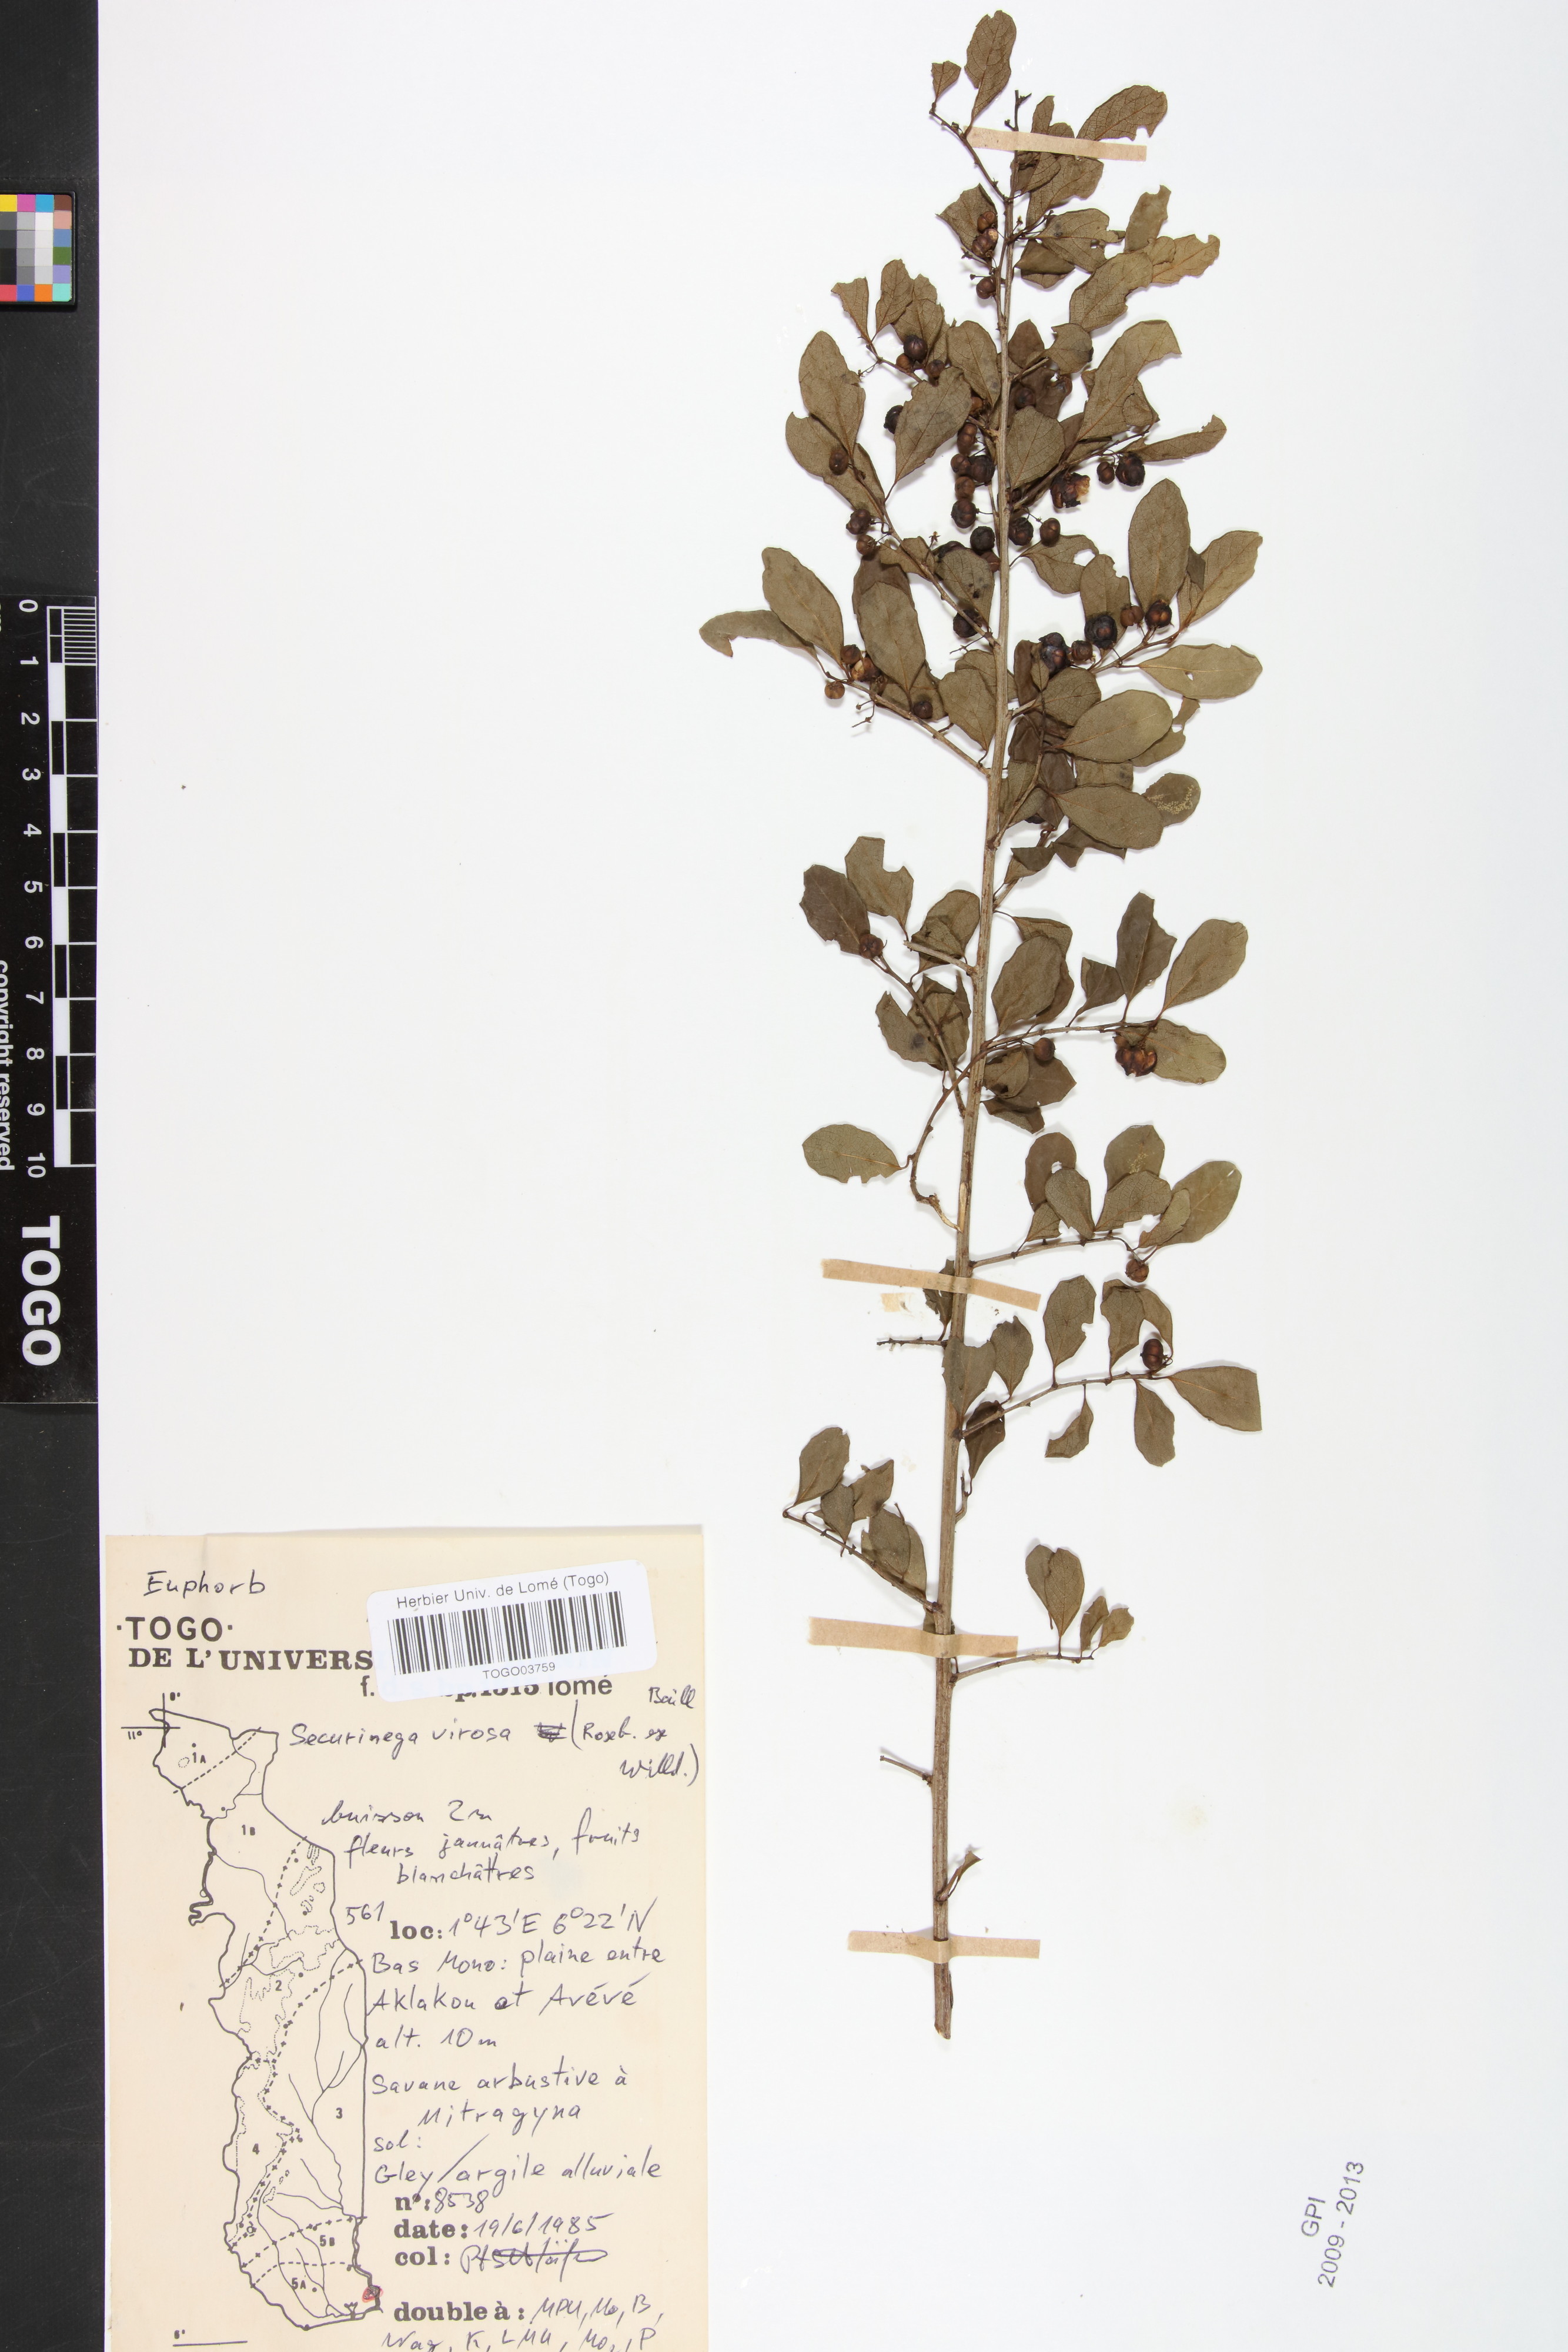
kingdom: Plantae
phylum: Tracheophyta
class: Magnoliopsida
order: Malpighiales
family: Phyllanthaceae
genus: Flueggea
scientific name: Flueggea virosa
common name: Common bushweed
